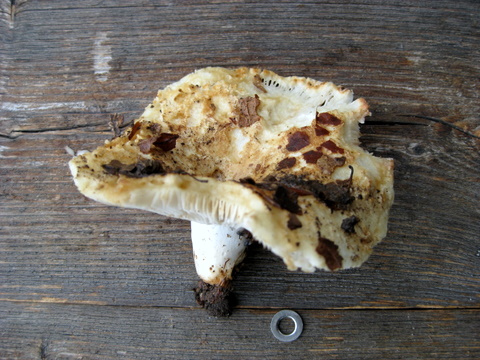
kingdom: Fungi
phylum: Basidiomycota
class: Agaricomycetes
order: Russulales
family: Russulaceae
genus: Russula
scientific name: Russula chloroides
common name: grønhalset tragt-skørhat
